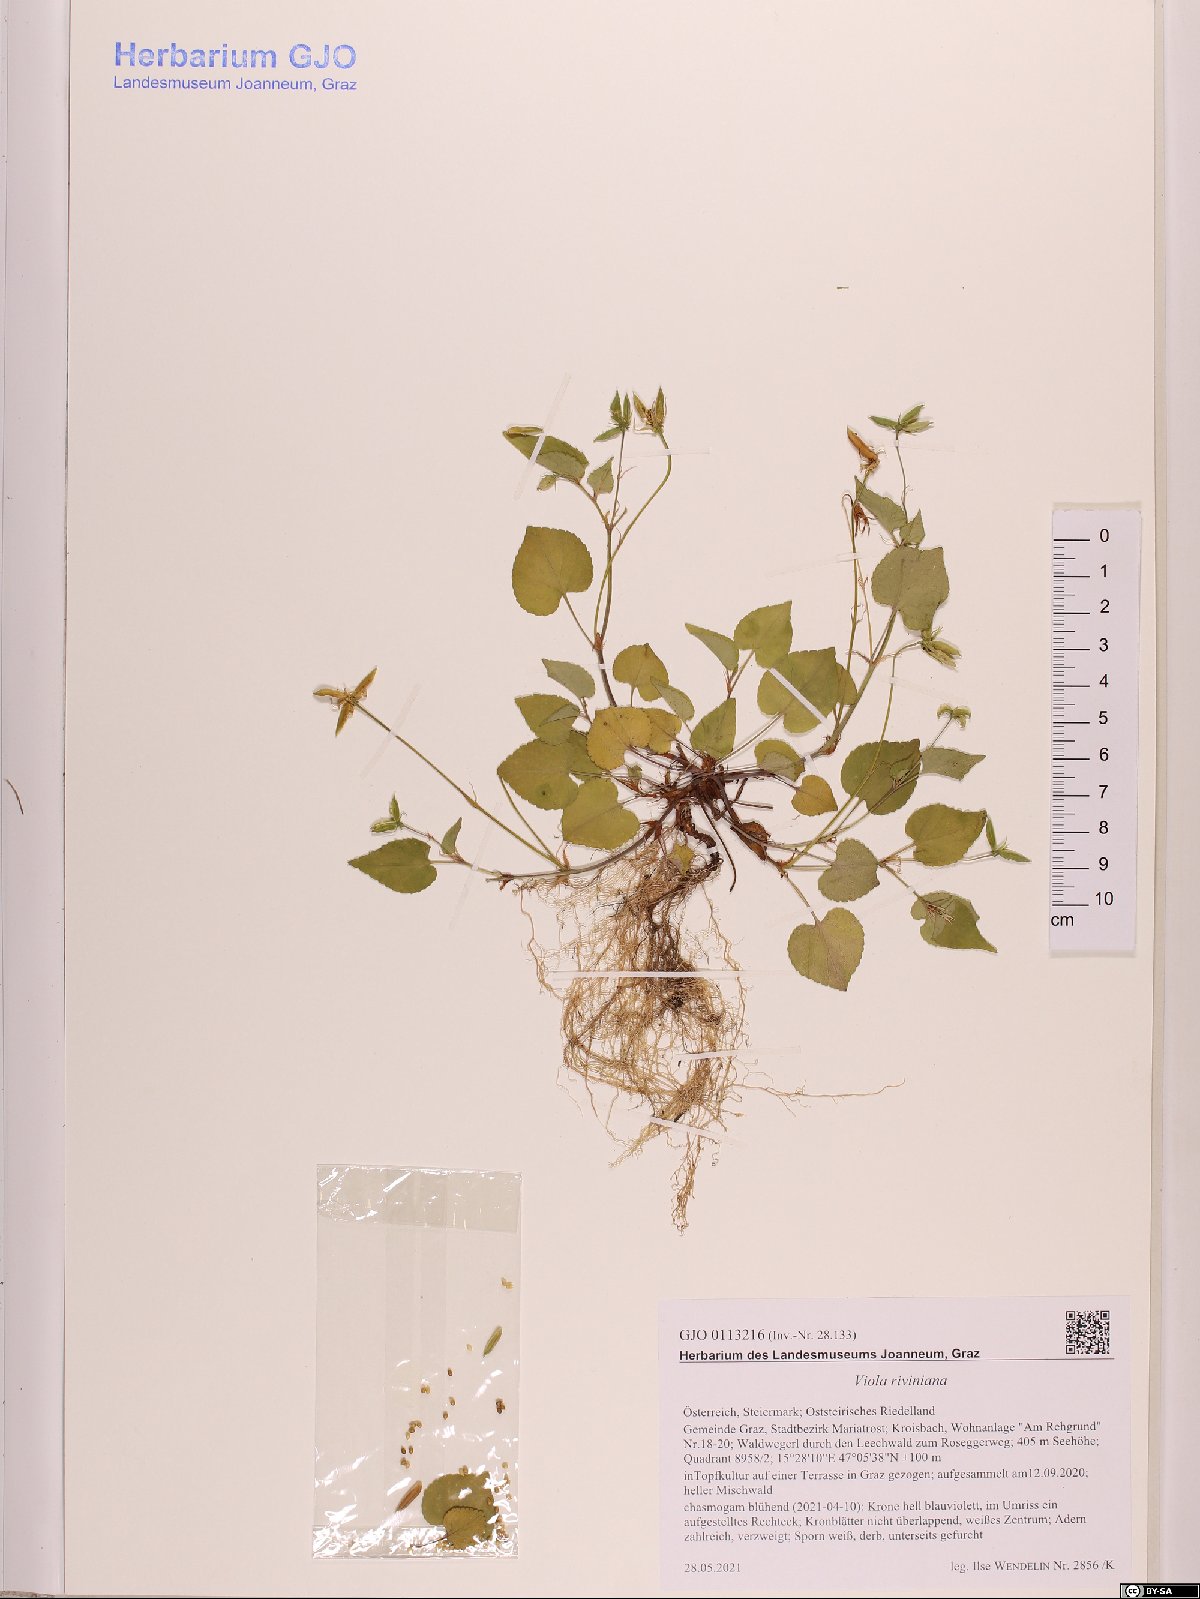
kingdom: Plantae
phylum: Tracheophyta
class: Magnoliopsida
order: Malpighiales
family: Violaceae
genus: Viola
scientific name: Viola riviniana
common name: Common dog-violet
